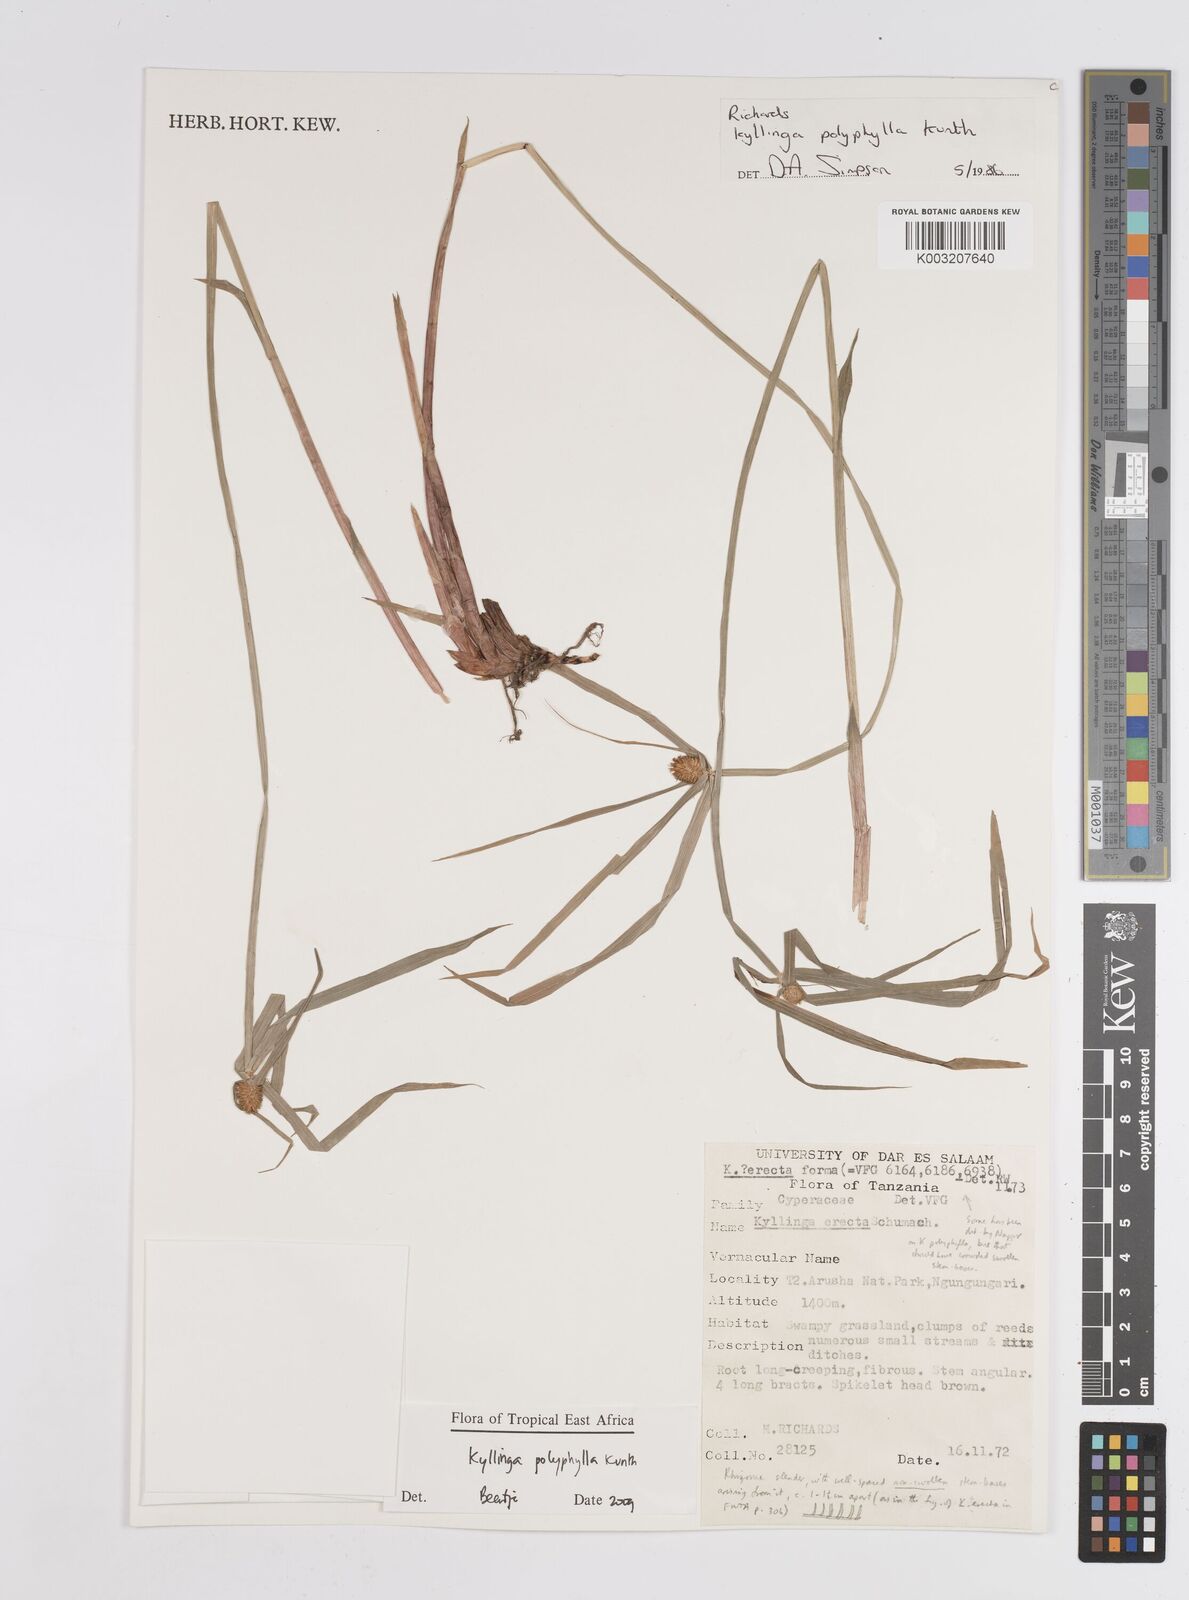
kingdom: Plantae
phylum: Tracheophyta
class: Liliopsida
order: Poales
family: Cyperaceae
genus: Cyperus
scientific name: Cyperus
